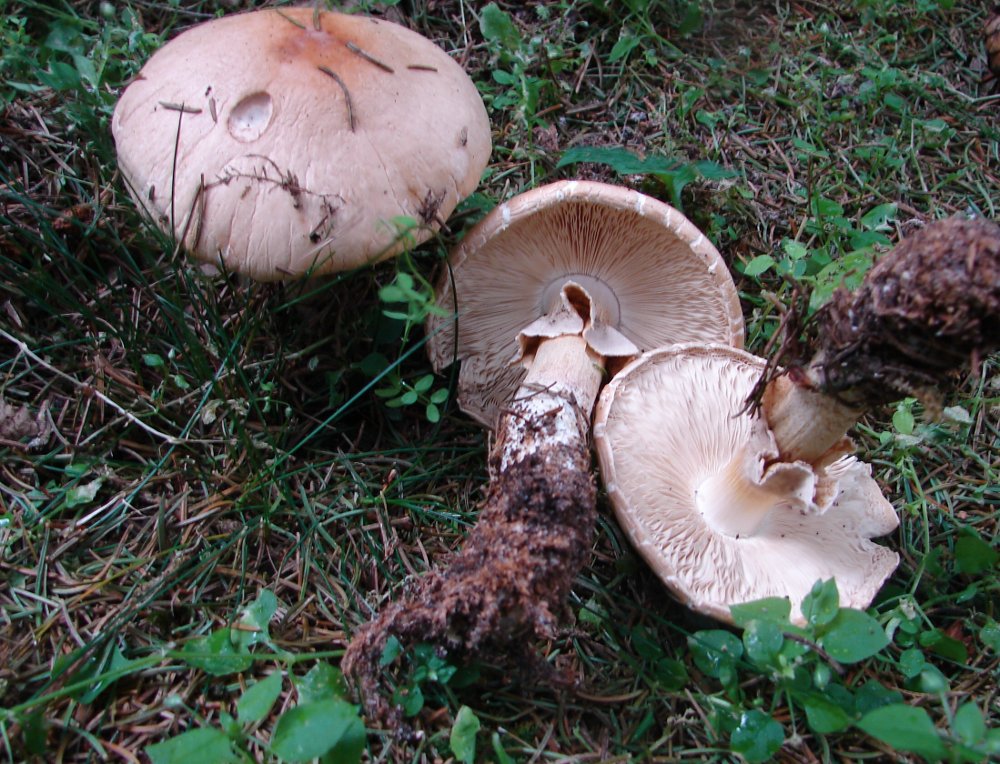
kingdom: Fungi
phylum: Basidiomycota
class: Agaricomycetes
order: Agaricales
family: Amanitaceae
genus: Limacellopsis
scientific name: Limacellopsis guttata
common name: tåre-snekkehat
